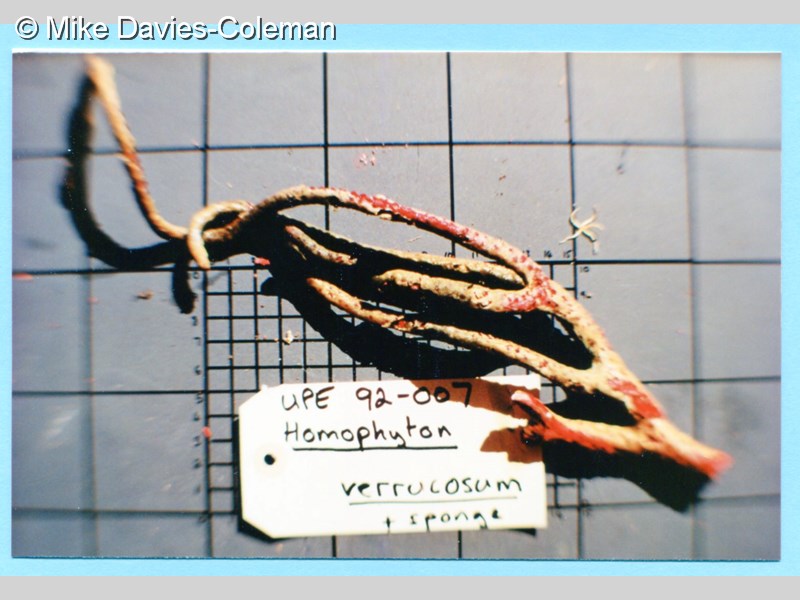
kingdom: Animalia
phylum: Cnidaria
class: Anthozoa
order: Scleralcyonacea
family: Spongiodermidae
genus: Homophyton
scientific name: Homophyton verrucosum
